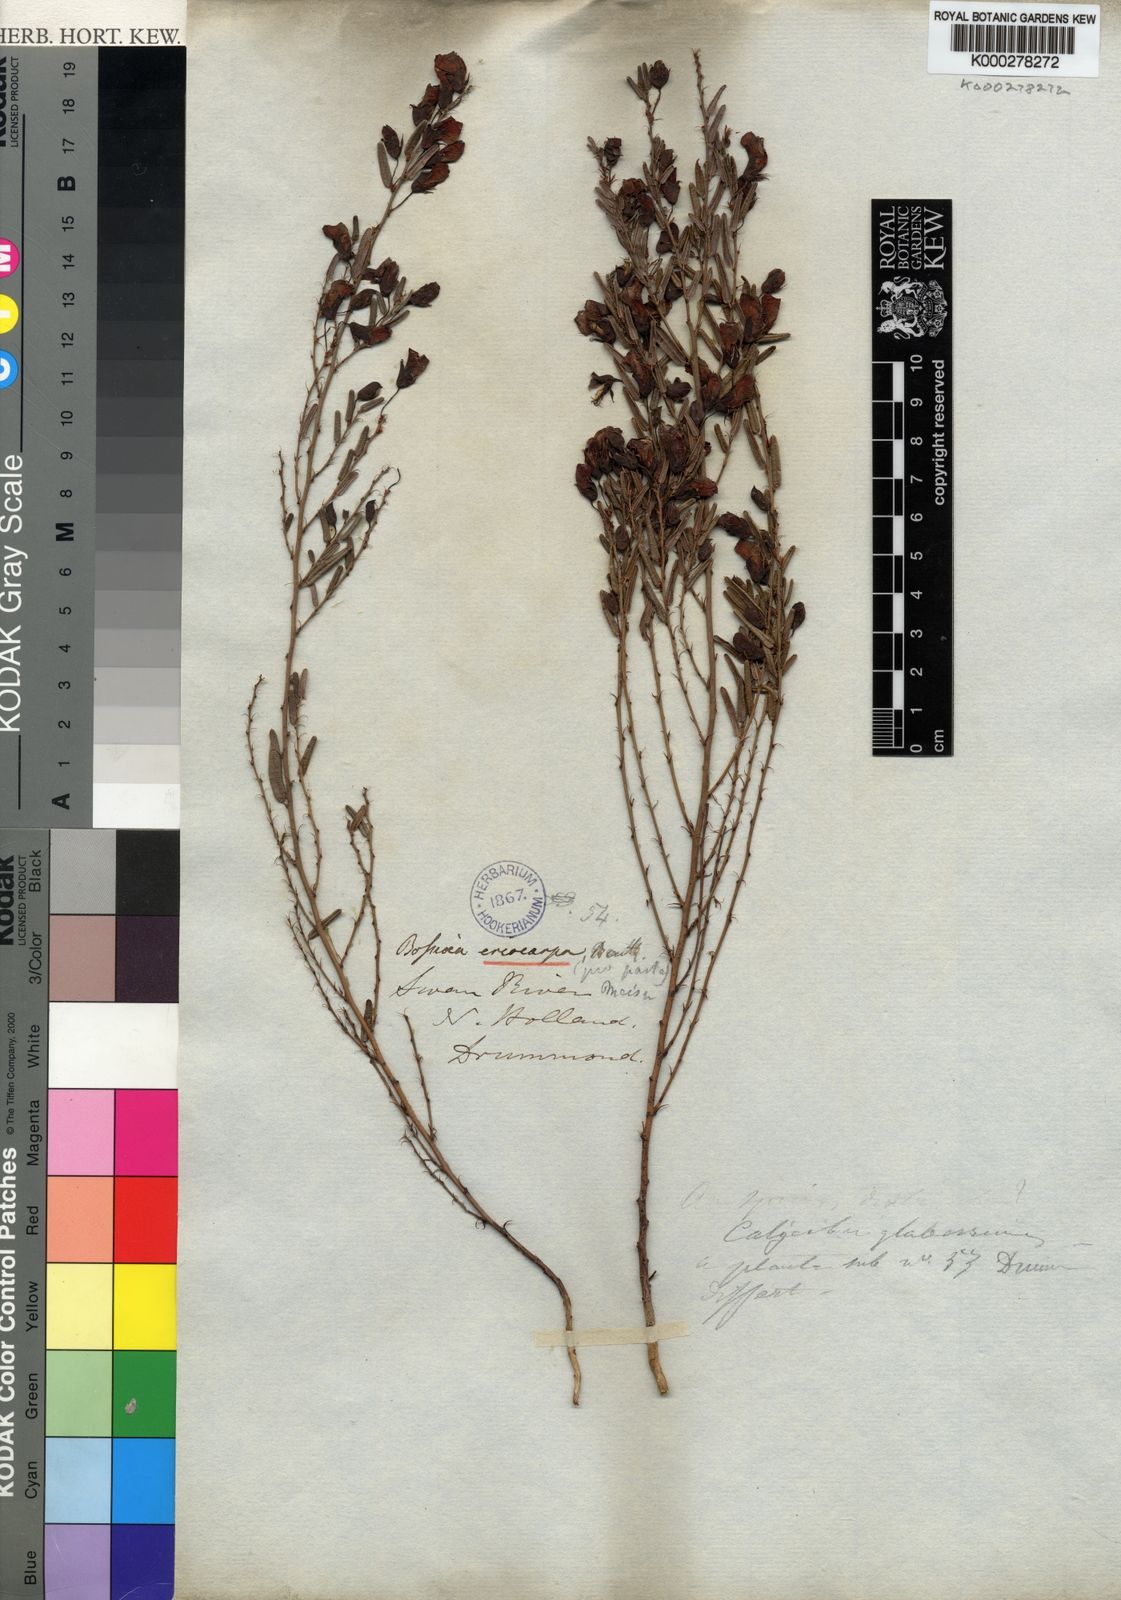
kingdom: Plantae
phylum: Tracheophyta
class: Magnoliopsida
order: Fabales
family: Fabaceae
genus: Bossiaea
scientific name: Bossiaea eriocarpa
